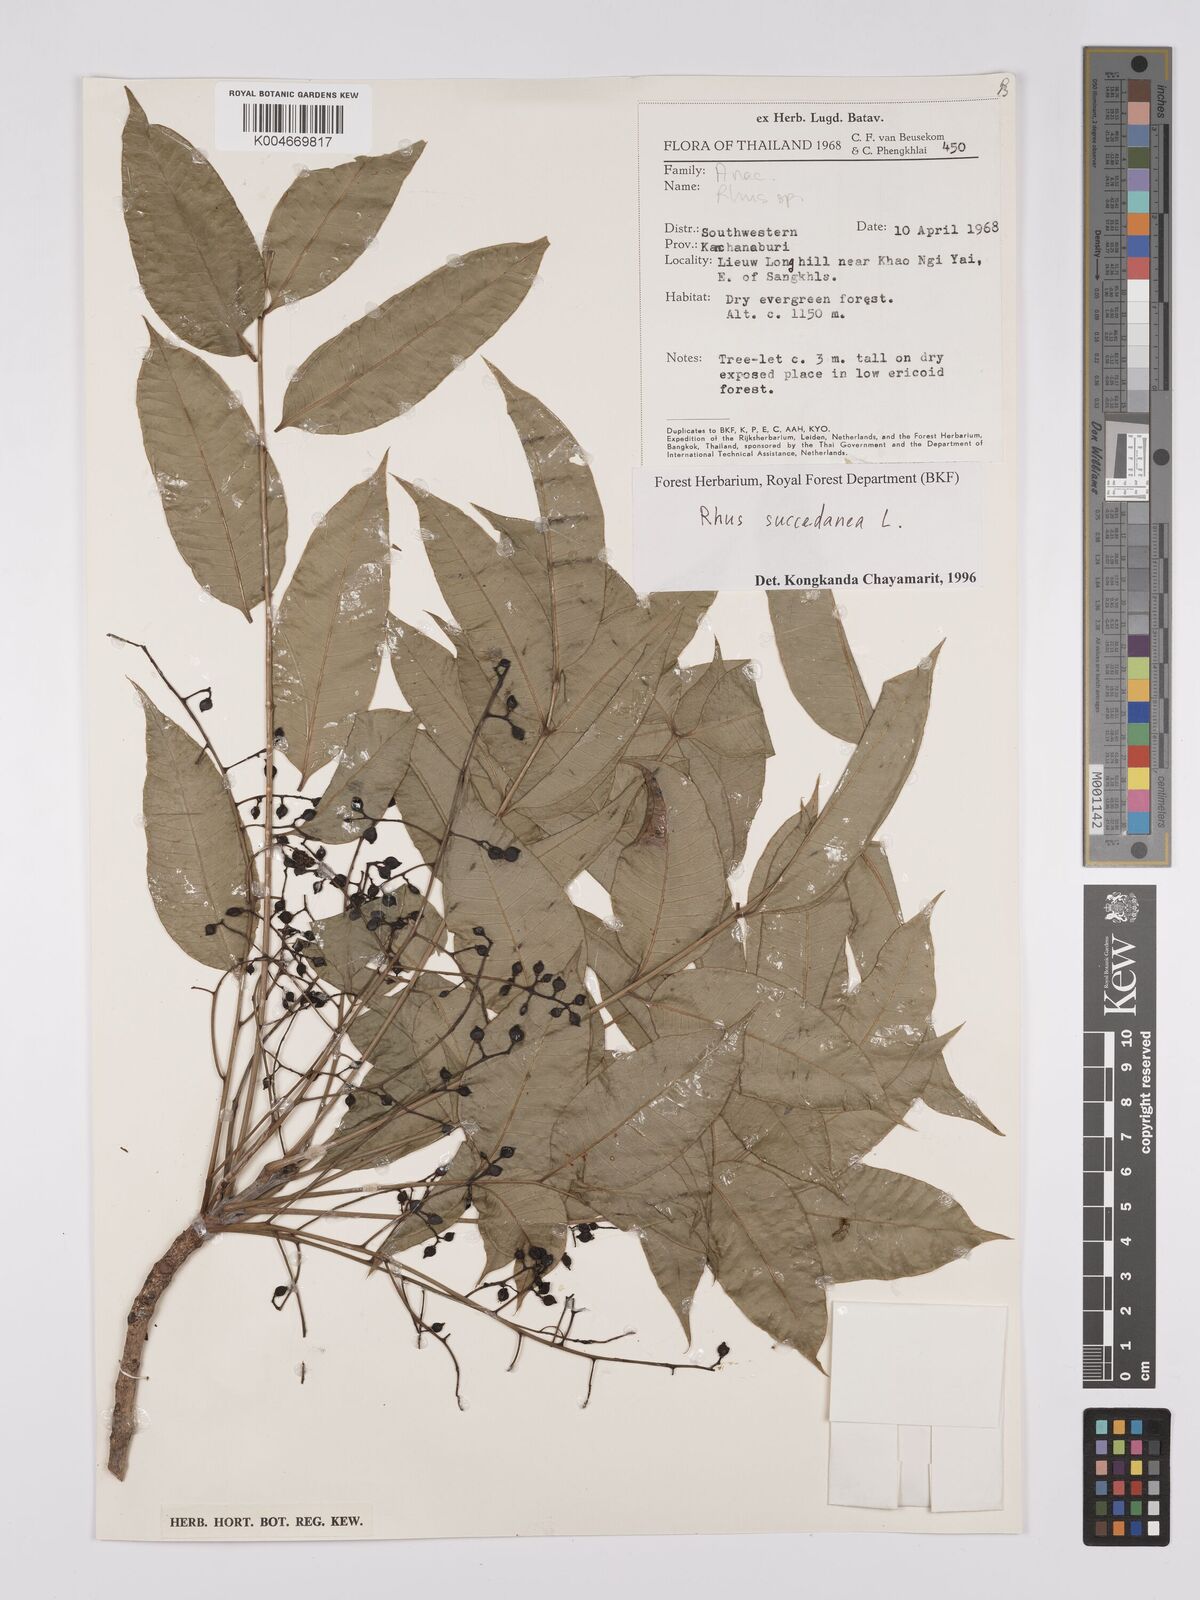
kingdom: Plantae
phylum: Tracheophyta
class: Magnoliopsida
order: Sapindales
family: Anacardiaceae
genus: Toxicodendron
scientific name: Toxicodendron succedaneum
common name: Wax tree
